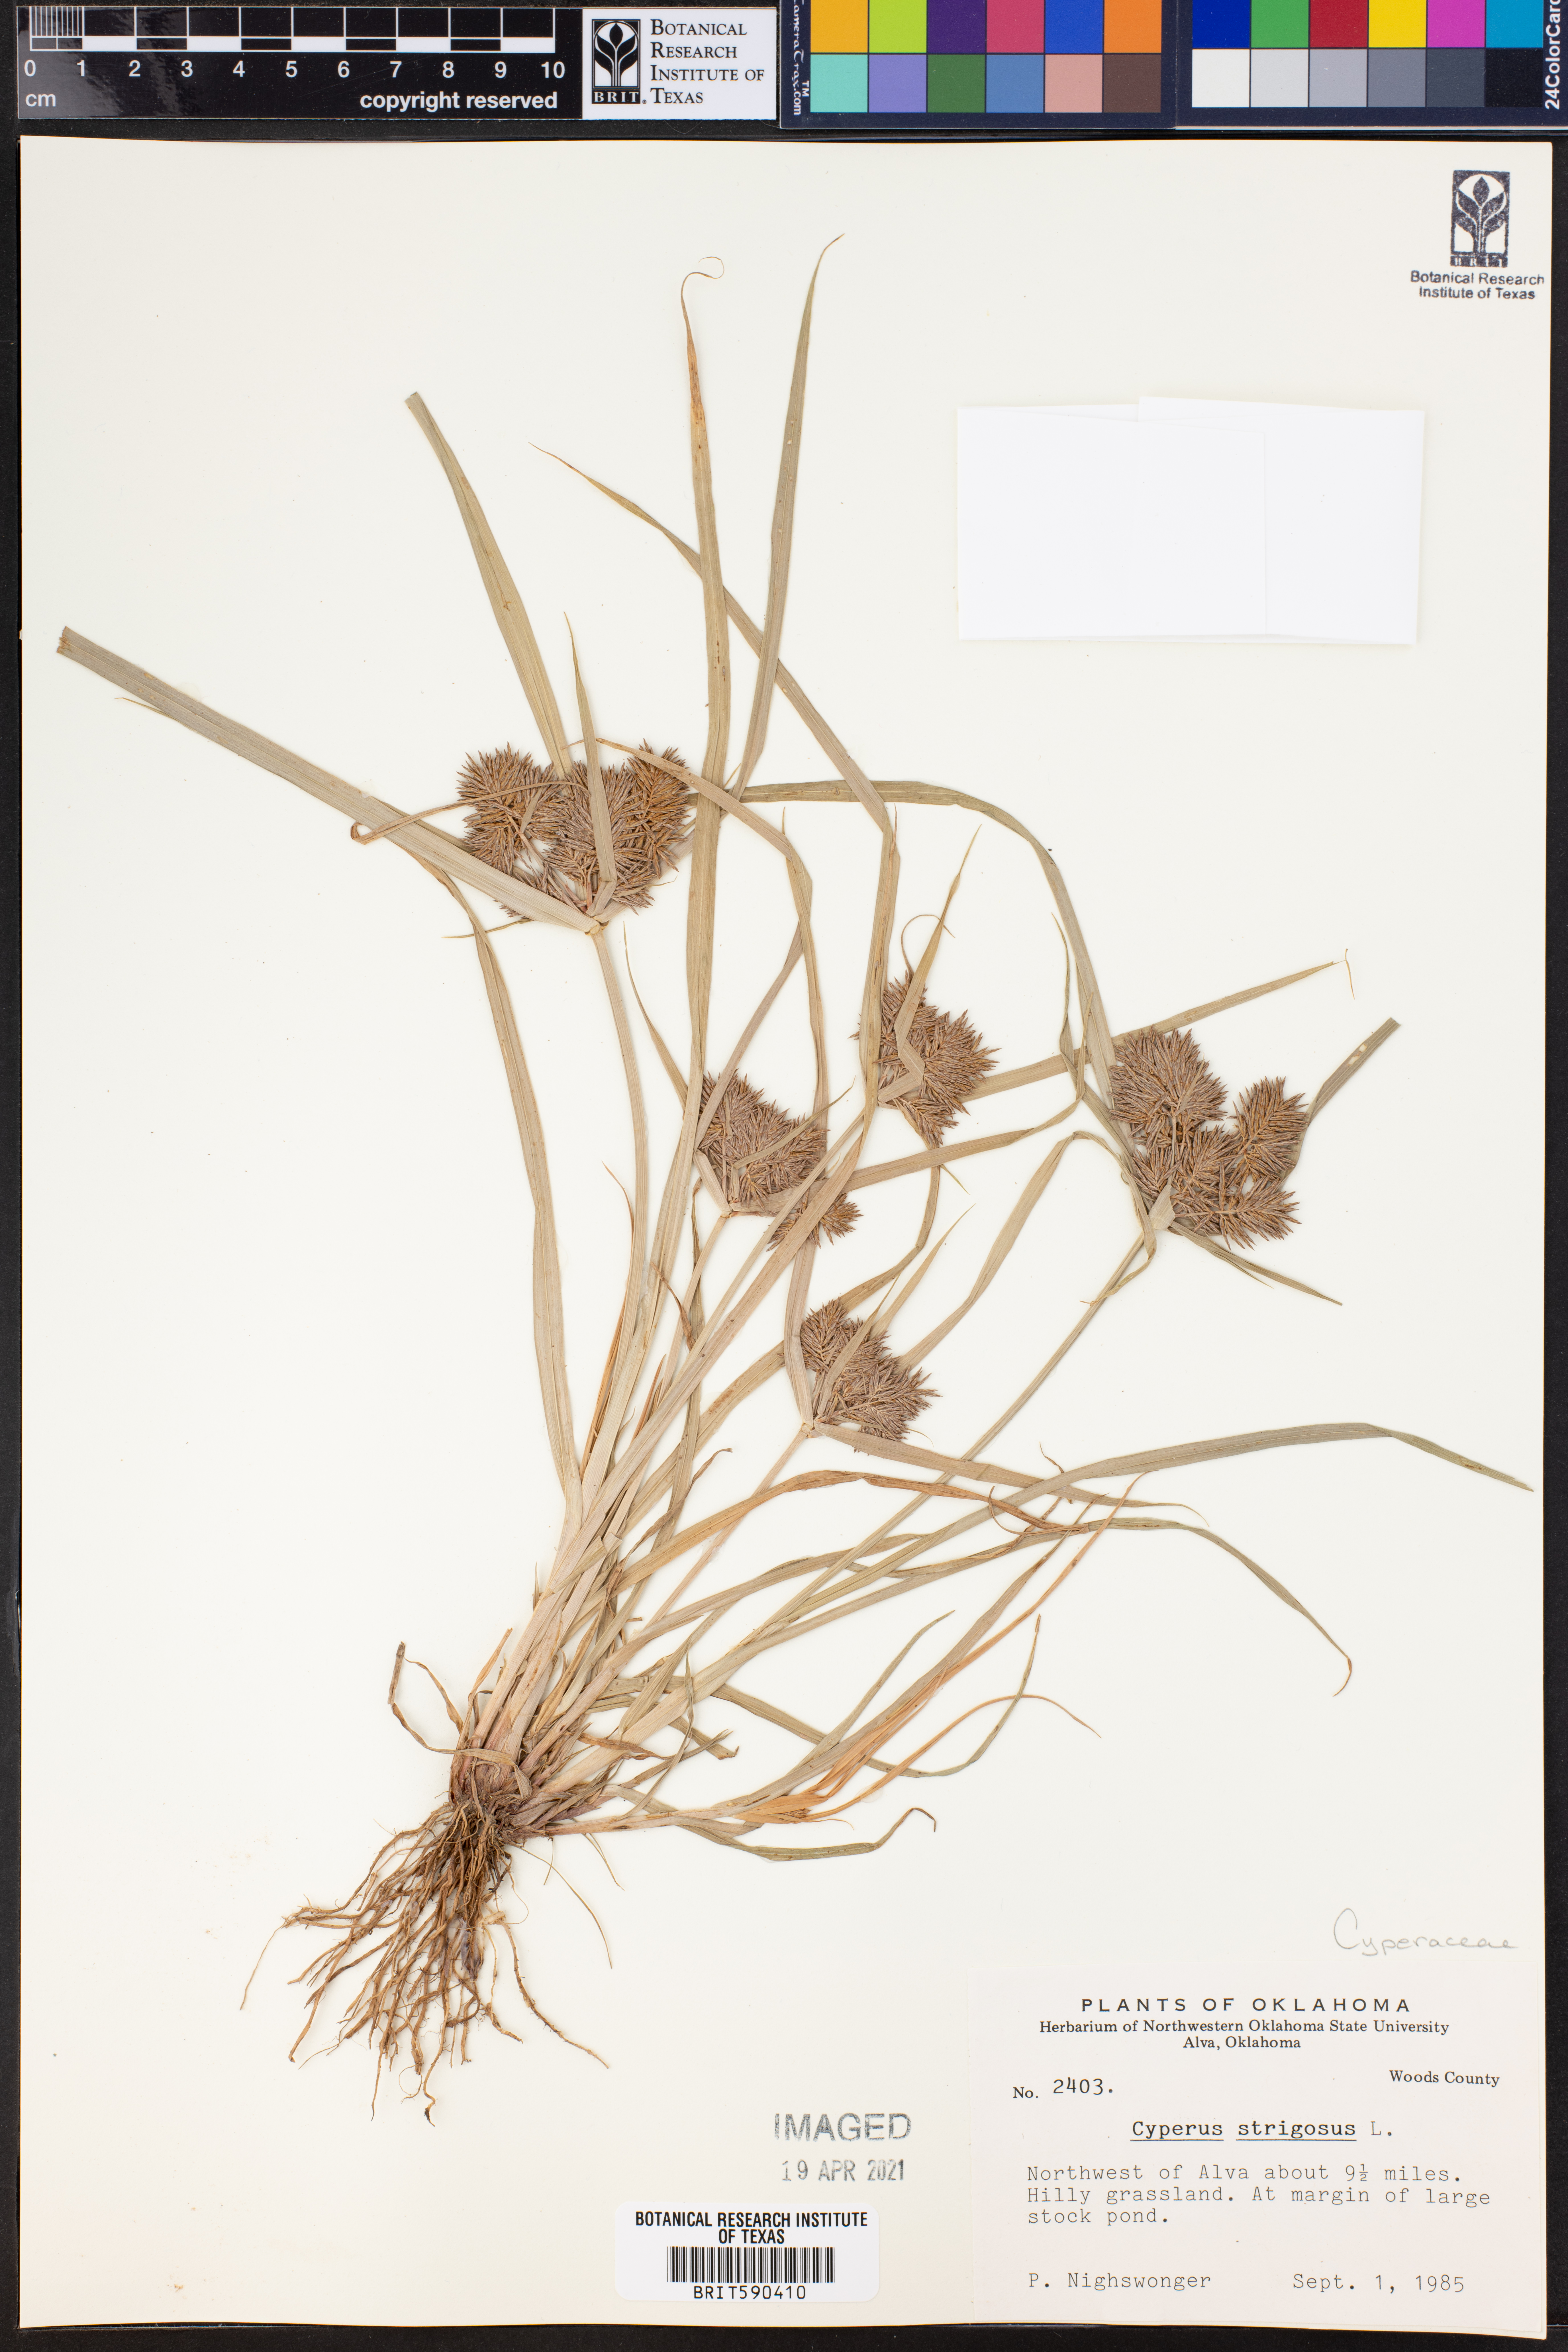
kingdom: Plantae
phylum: Tracheophyta
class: Liliopsida
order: Poales
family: Cyperaceae
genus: Cyperus
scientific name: Cyperus strigosus
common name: False nutsedge
